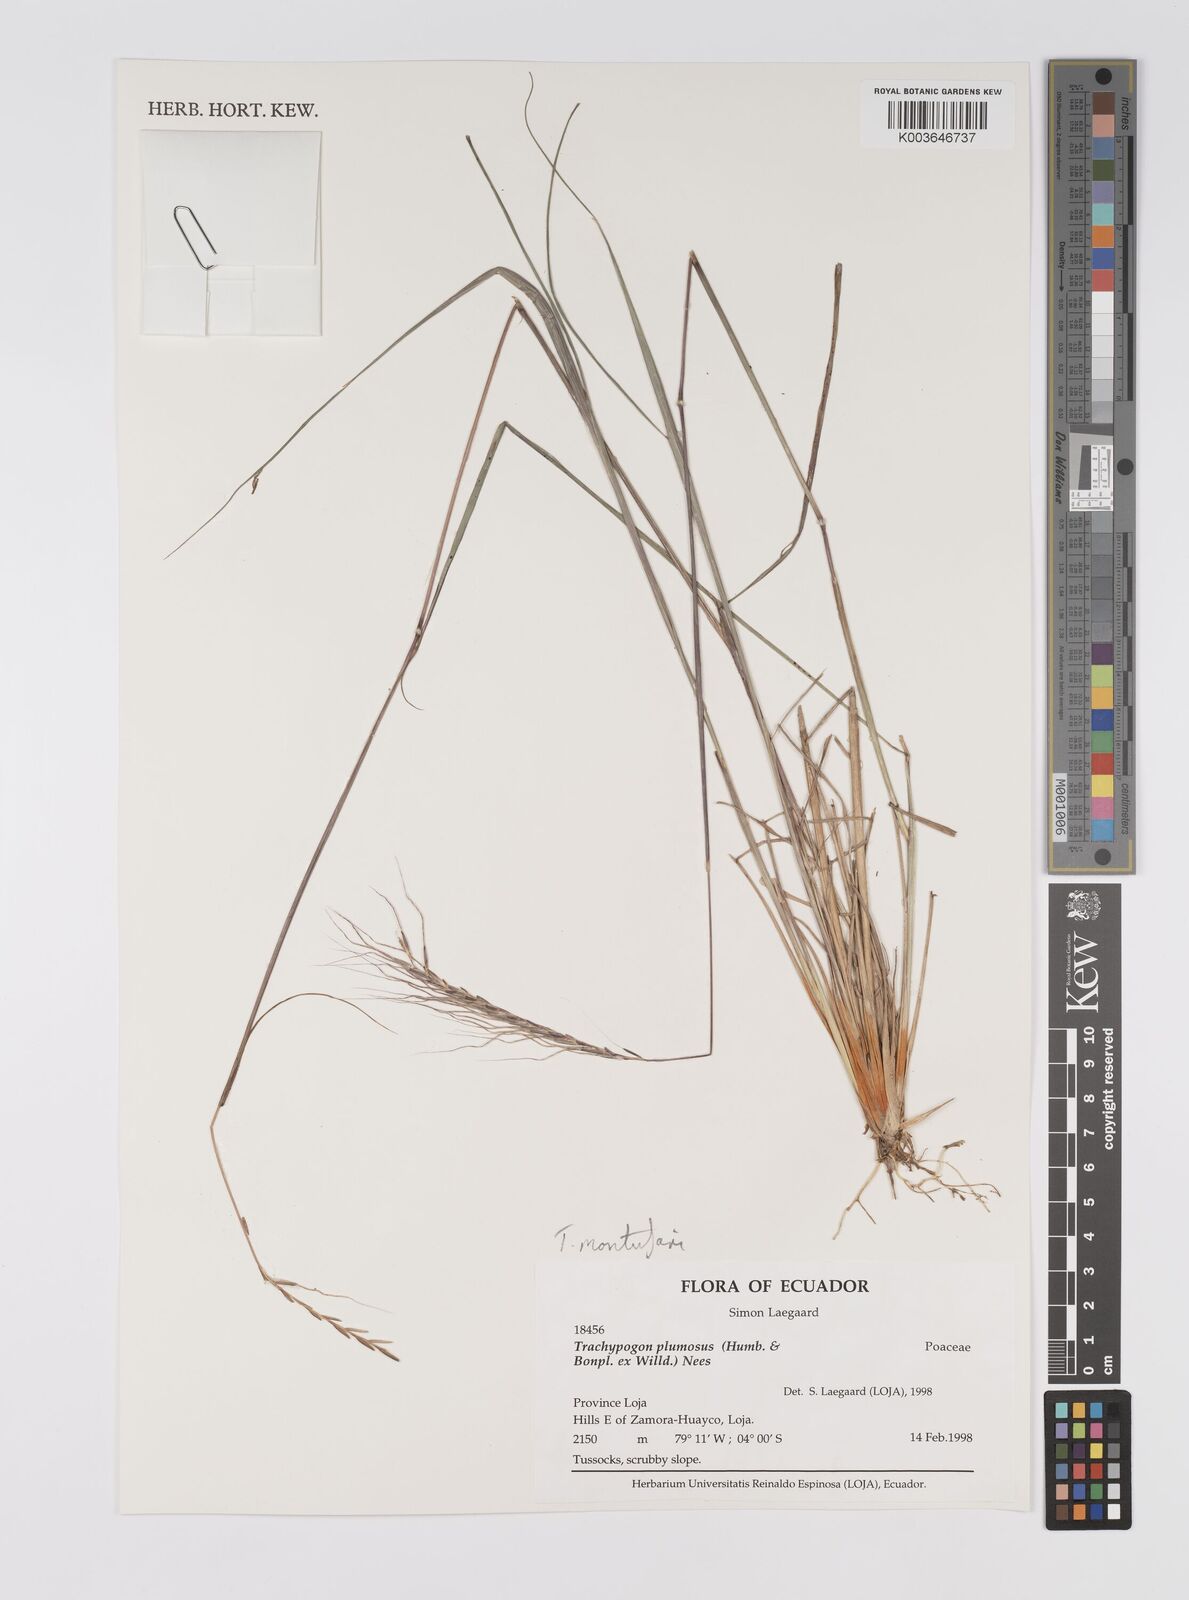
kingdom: Plantae
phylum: Tracheophyta
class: Liliopsida
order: Poales
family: Poaceae
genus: Trachypogon
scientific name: Trachypogon spicatus
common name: Crinkle-awn
